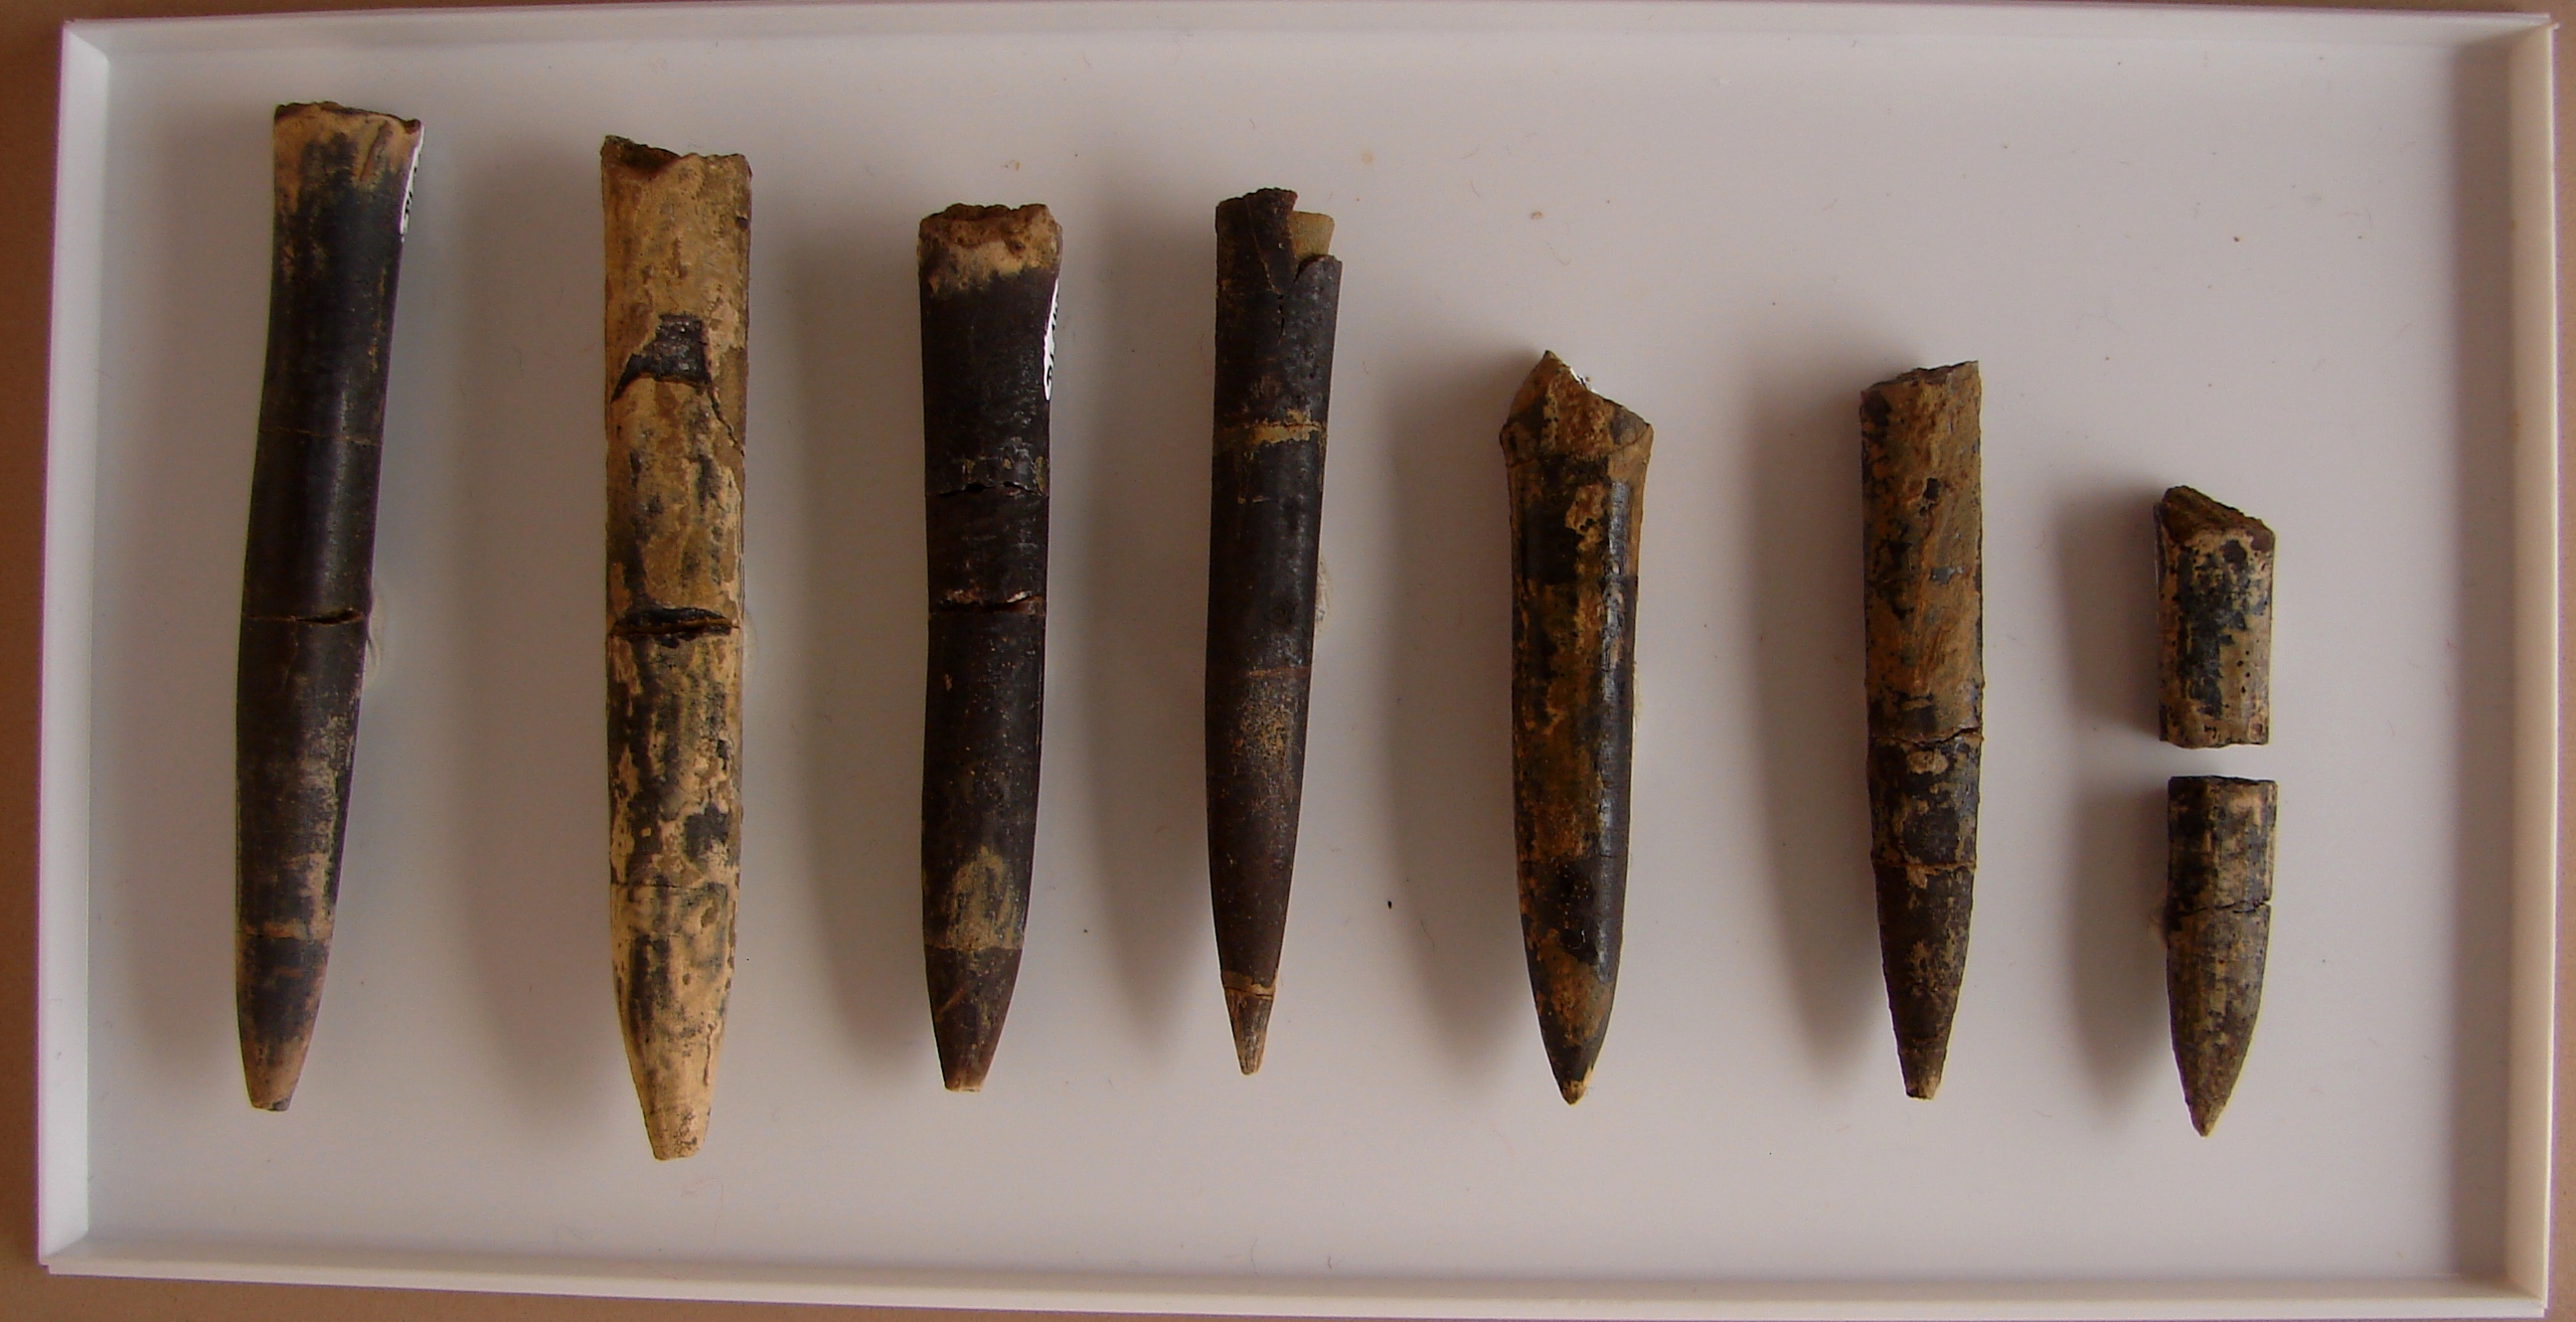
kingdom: Animalia
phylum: Mollusca
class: Cephalopoda
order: Belemnitida
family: Passaloteuthidae
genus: Passaloteuthis
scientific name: Passaloteuthis
